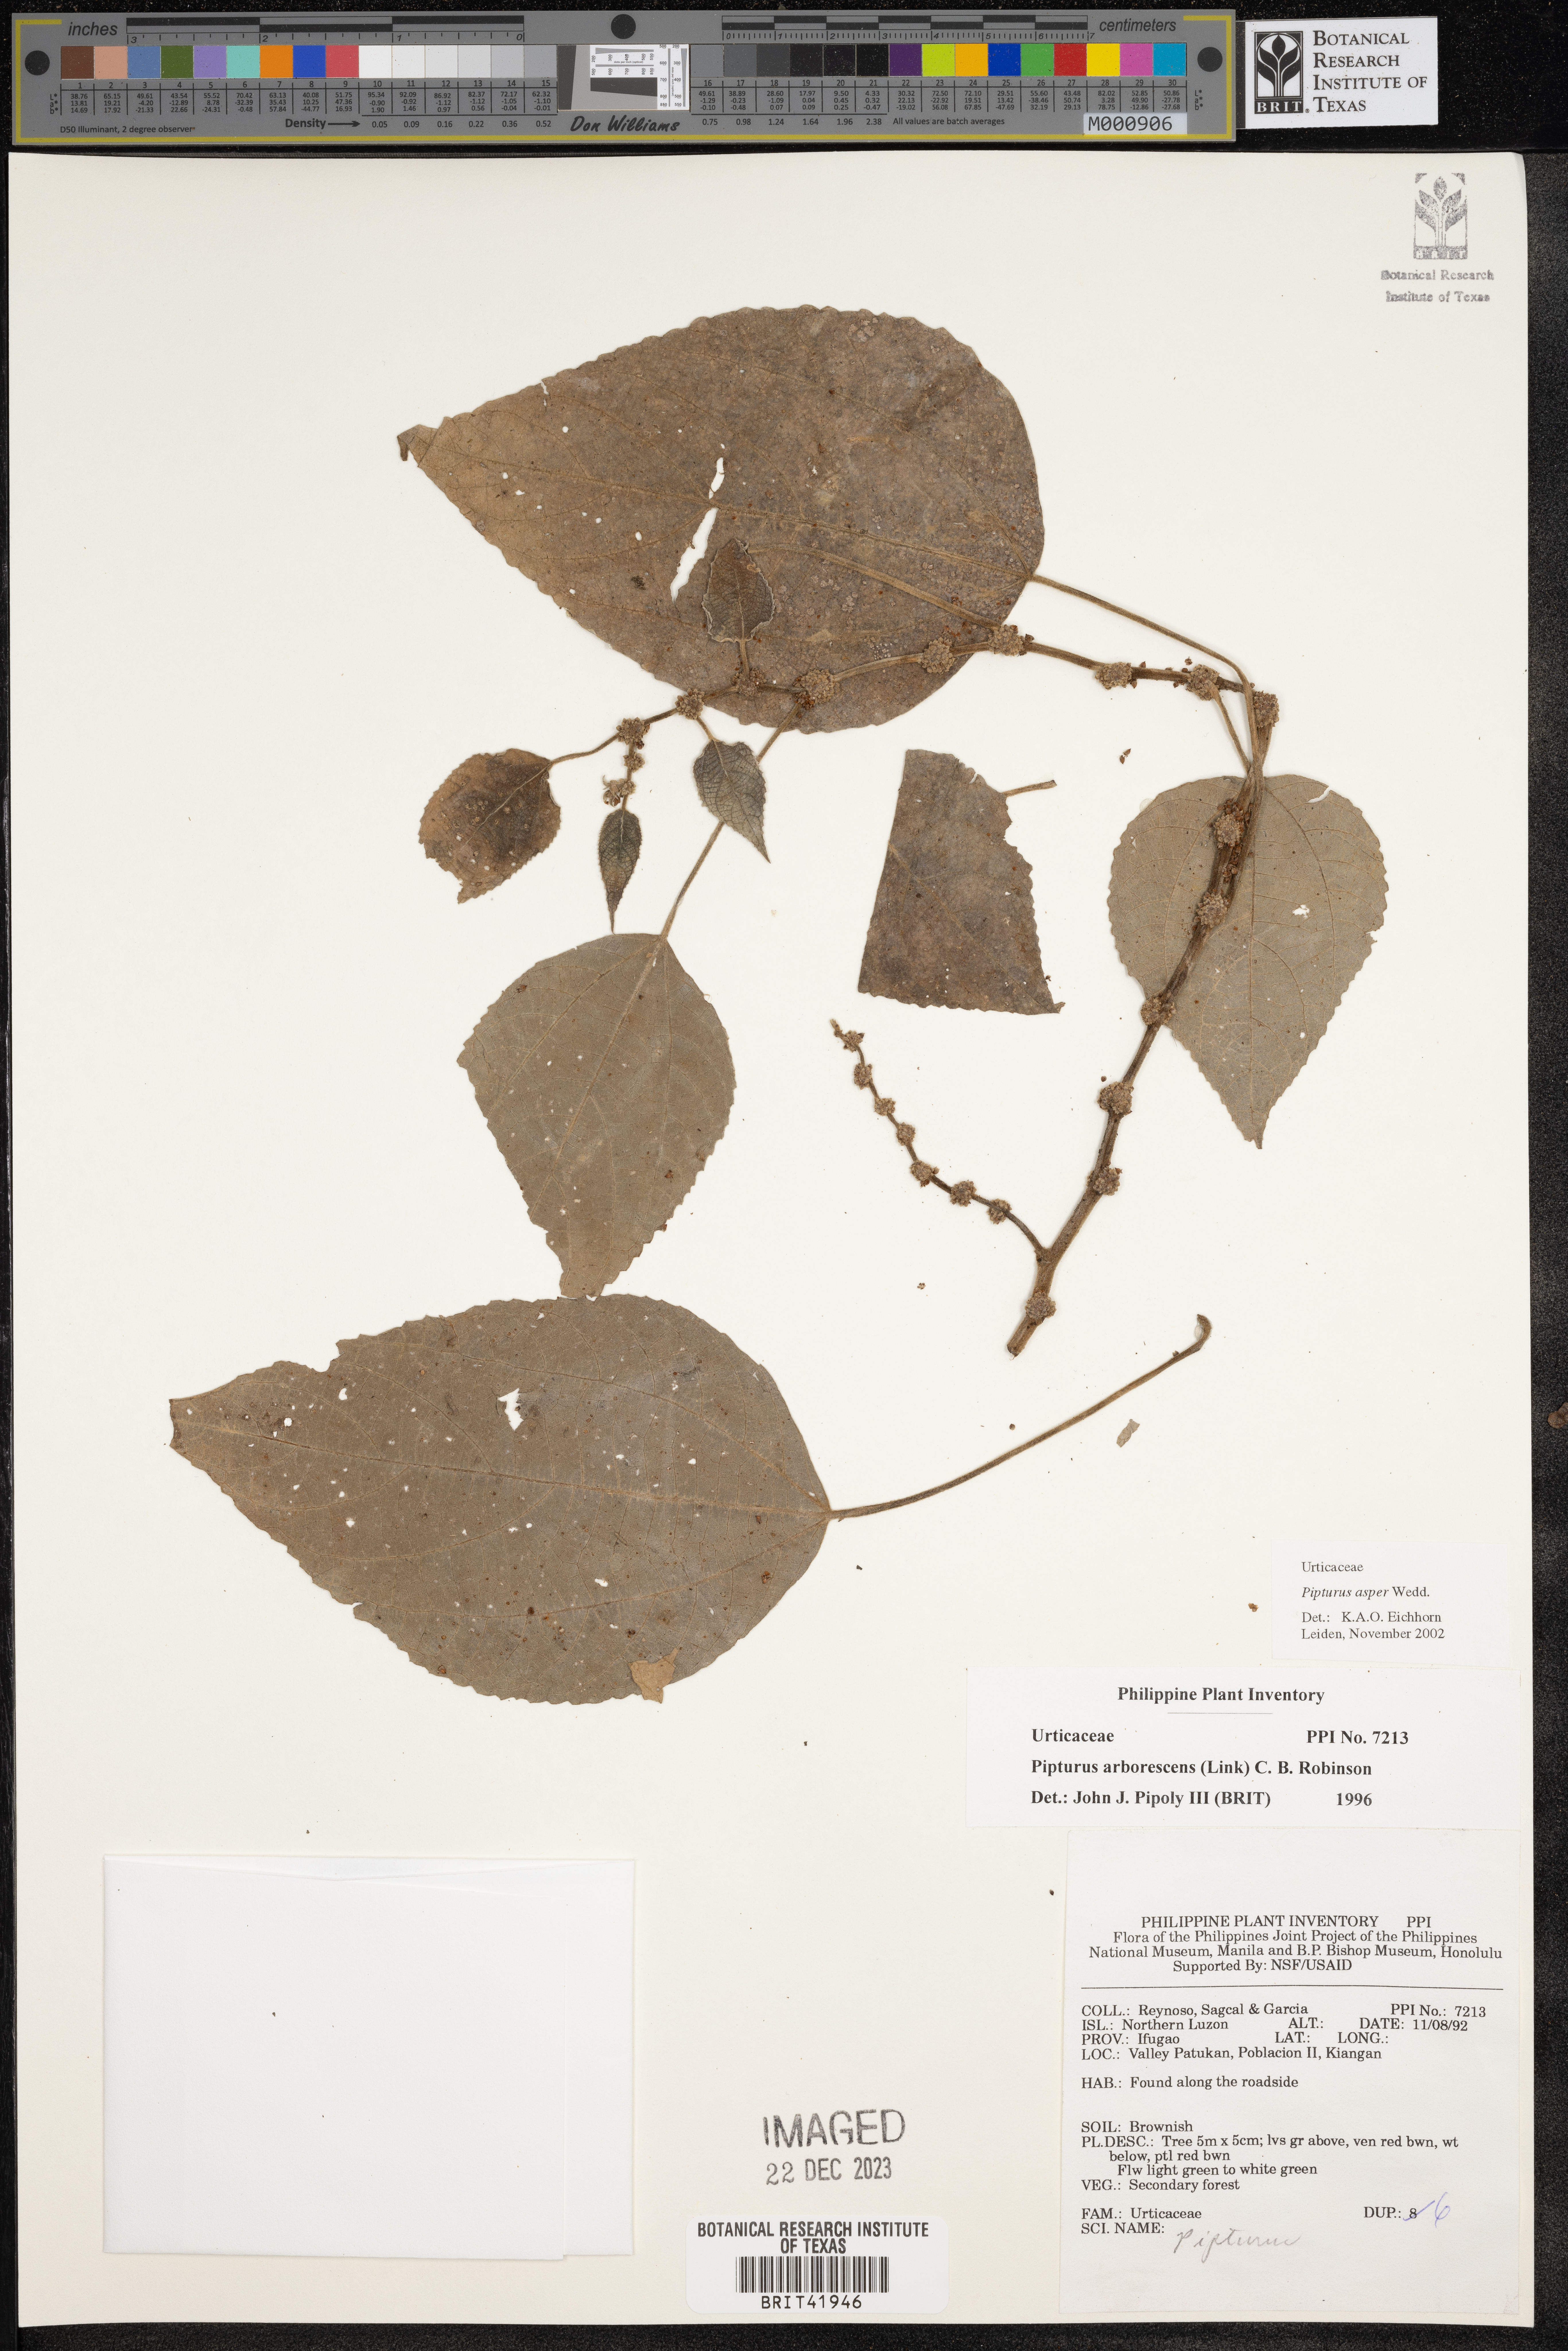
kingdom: Plantae
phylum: Tracheophyta
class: Magnoliopsida
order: Rosales
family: Urticaceae
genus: Pipturus
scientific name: Pipturus arborescens
